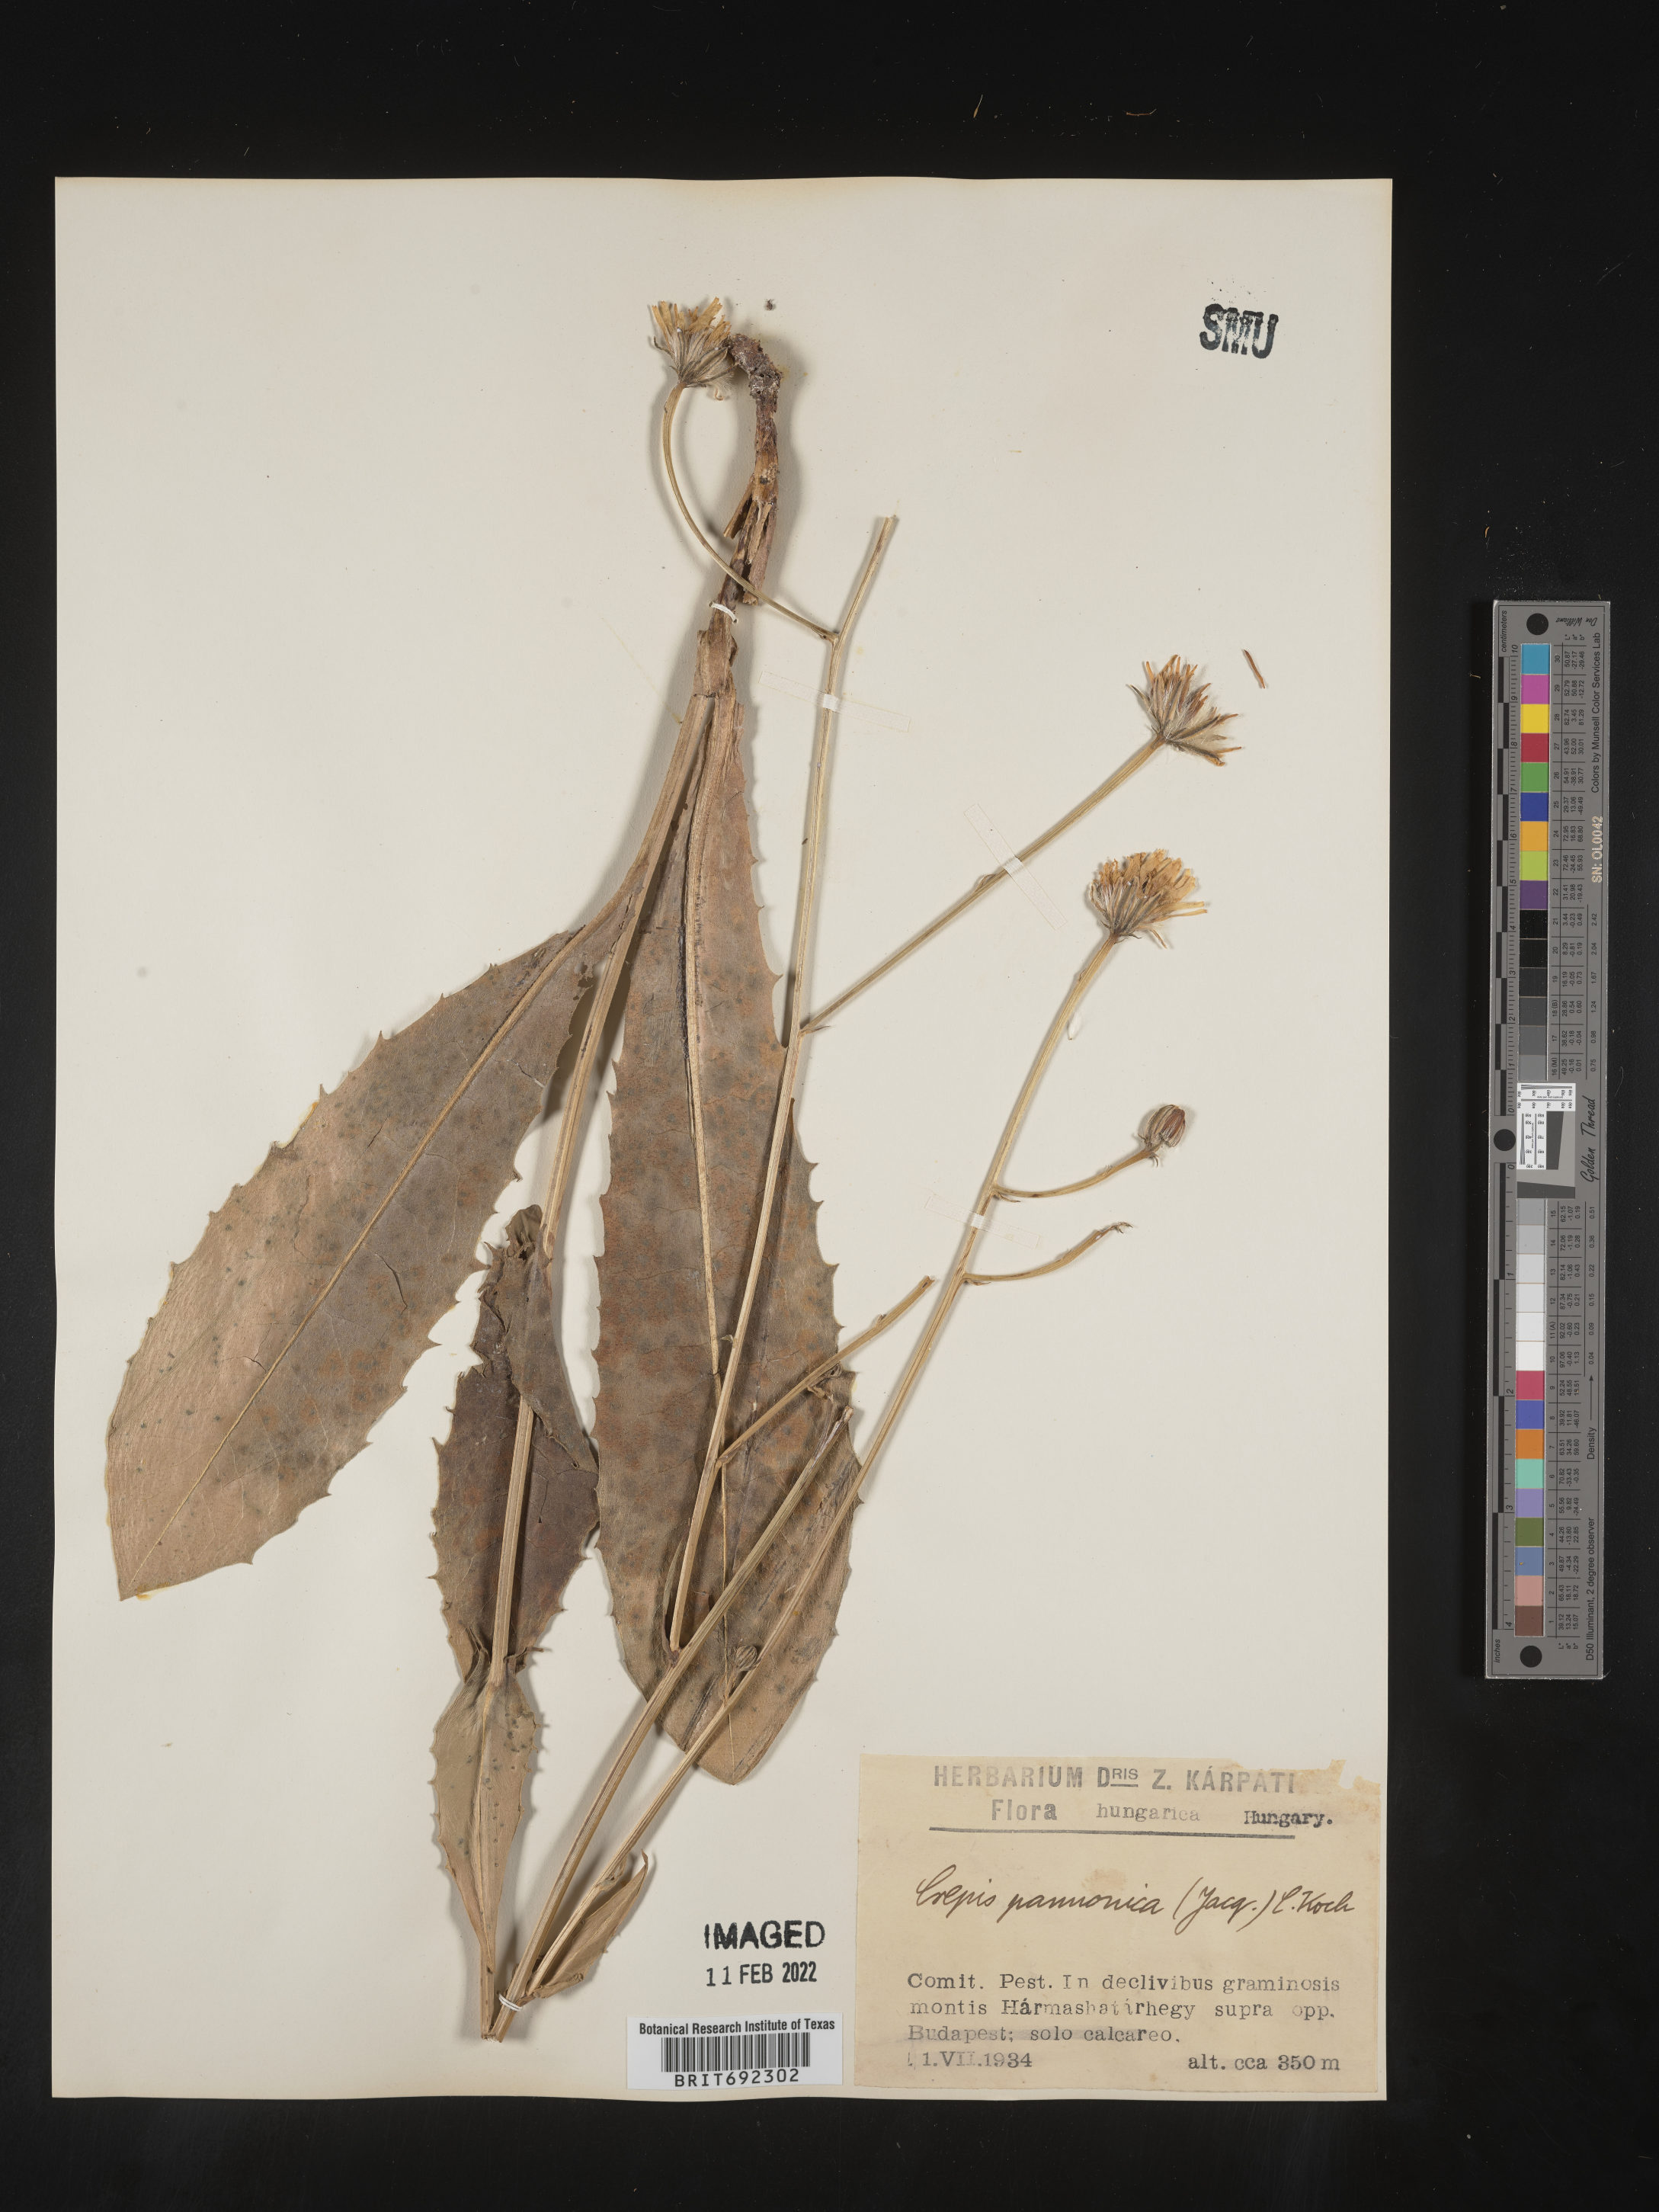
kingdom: Plantae
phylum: Tracheophyta
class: Magnoliopsida
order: Asterales
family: Asteraceae
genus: Crepis
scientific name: Crepis
